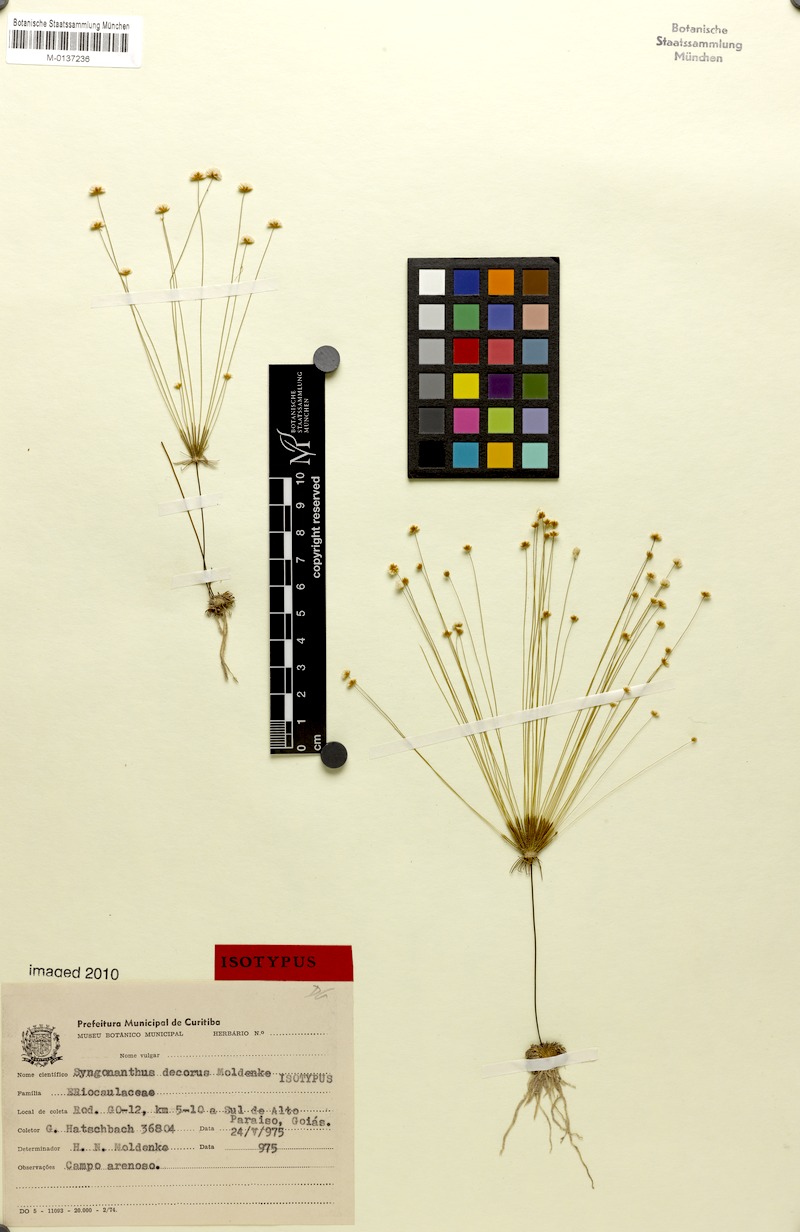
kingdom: Plantae
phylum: Tracheophyta
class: Liliopsida
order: Poales
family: Eriocaulaceae
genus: Syngonanthus
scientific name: Syngonanthus decorus
